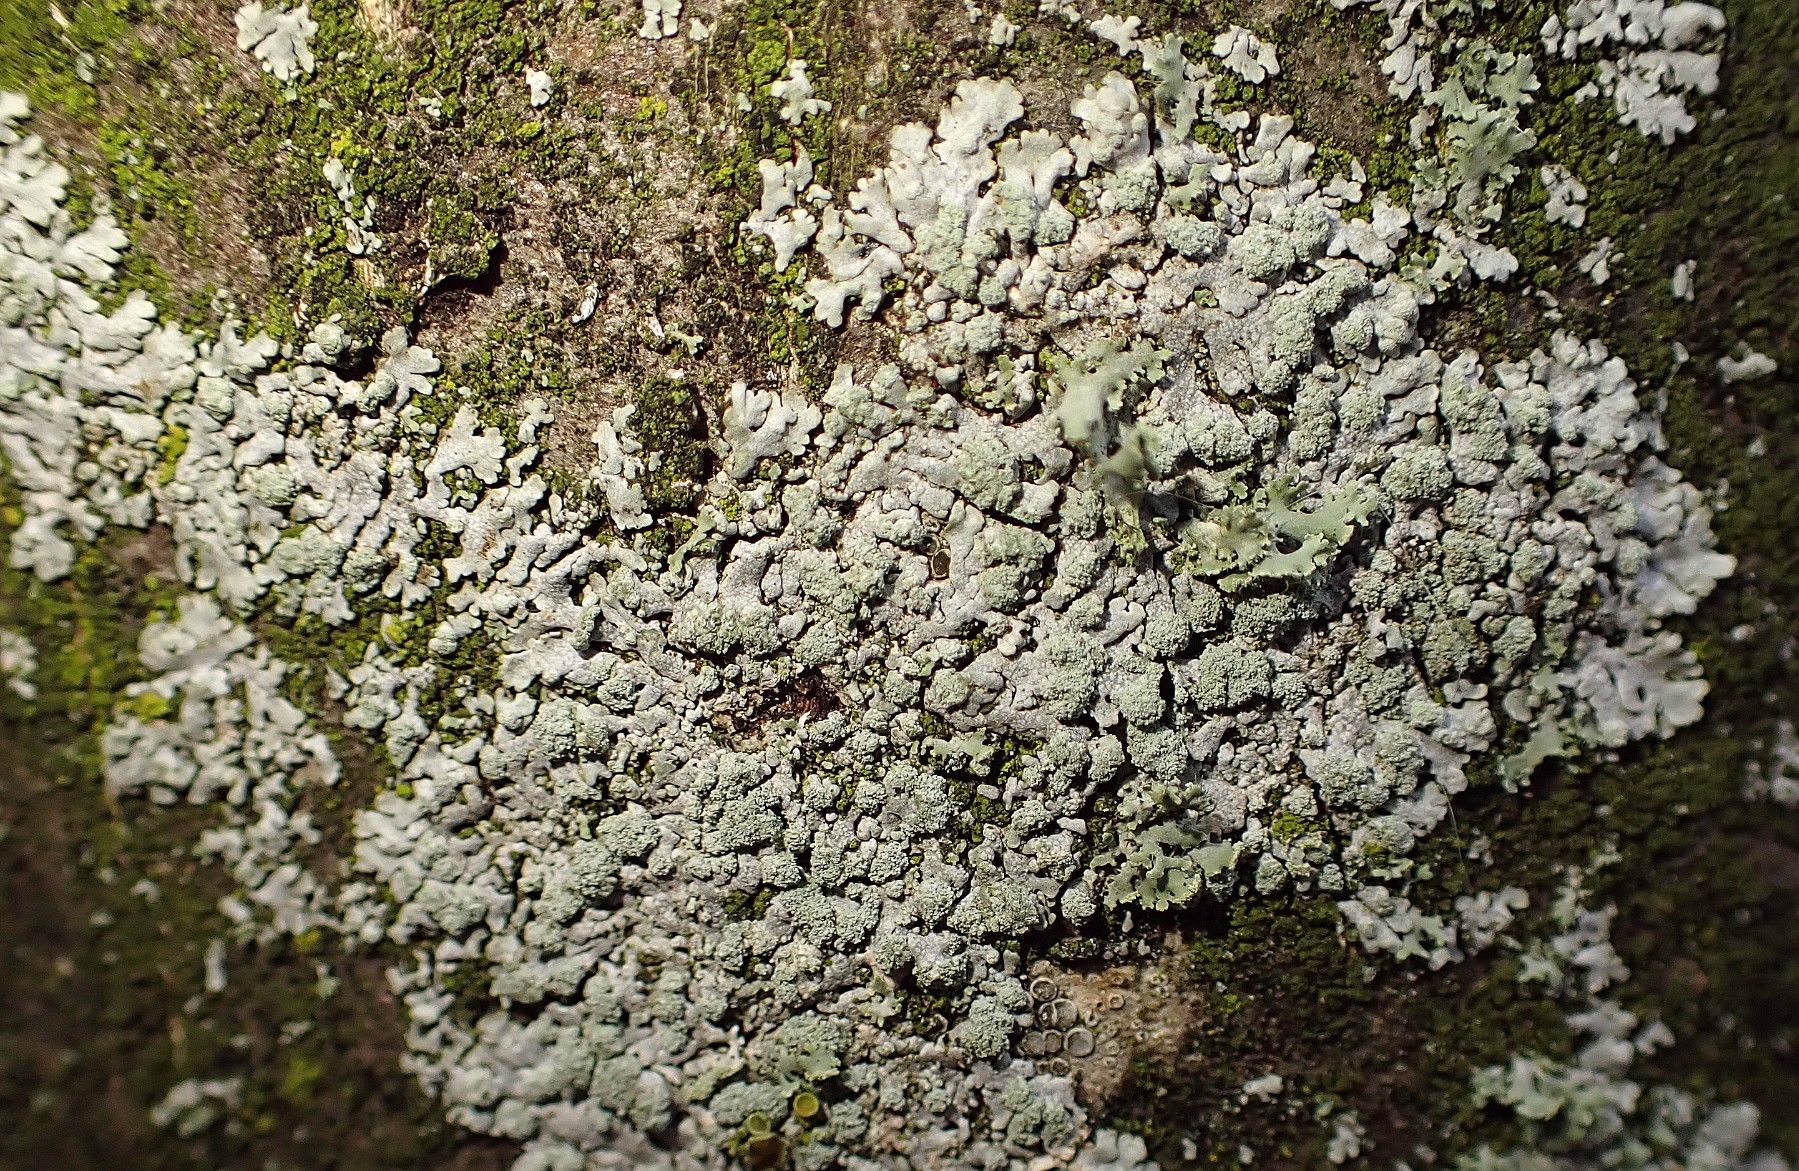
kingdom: Fungi
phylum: Ascomycota
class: Lecanoromycetes
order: Caliciales
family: Physciaceae
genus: Physcia
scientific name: Physcia caesia
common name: blågrå rosetlav
